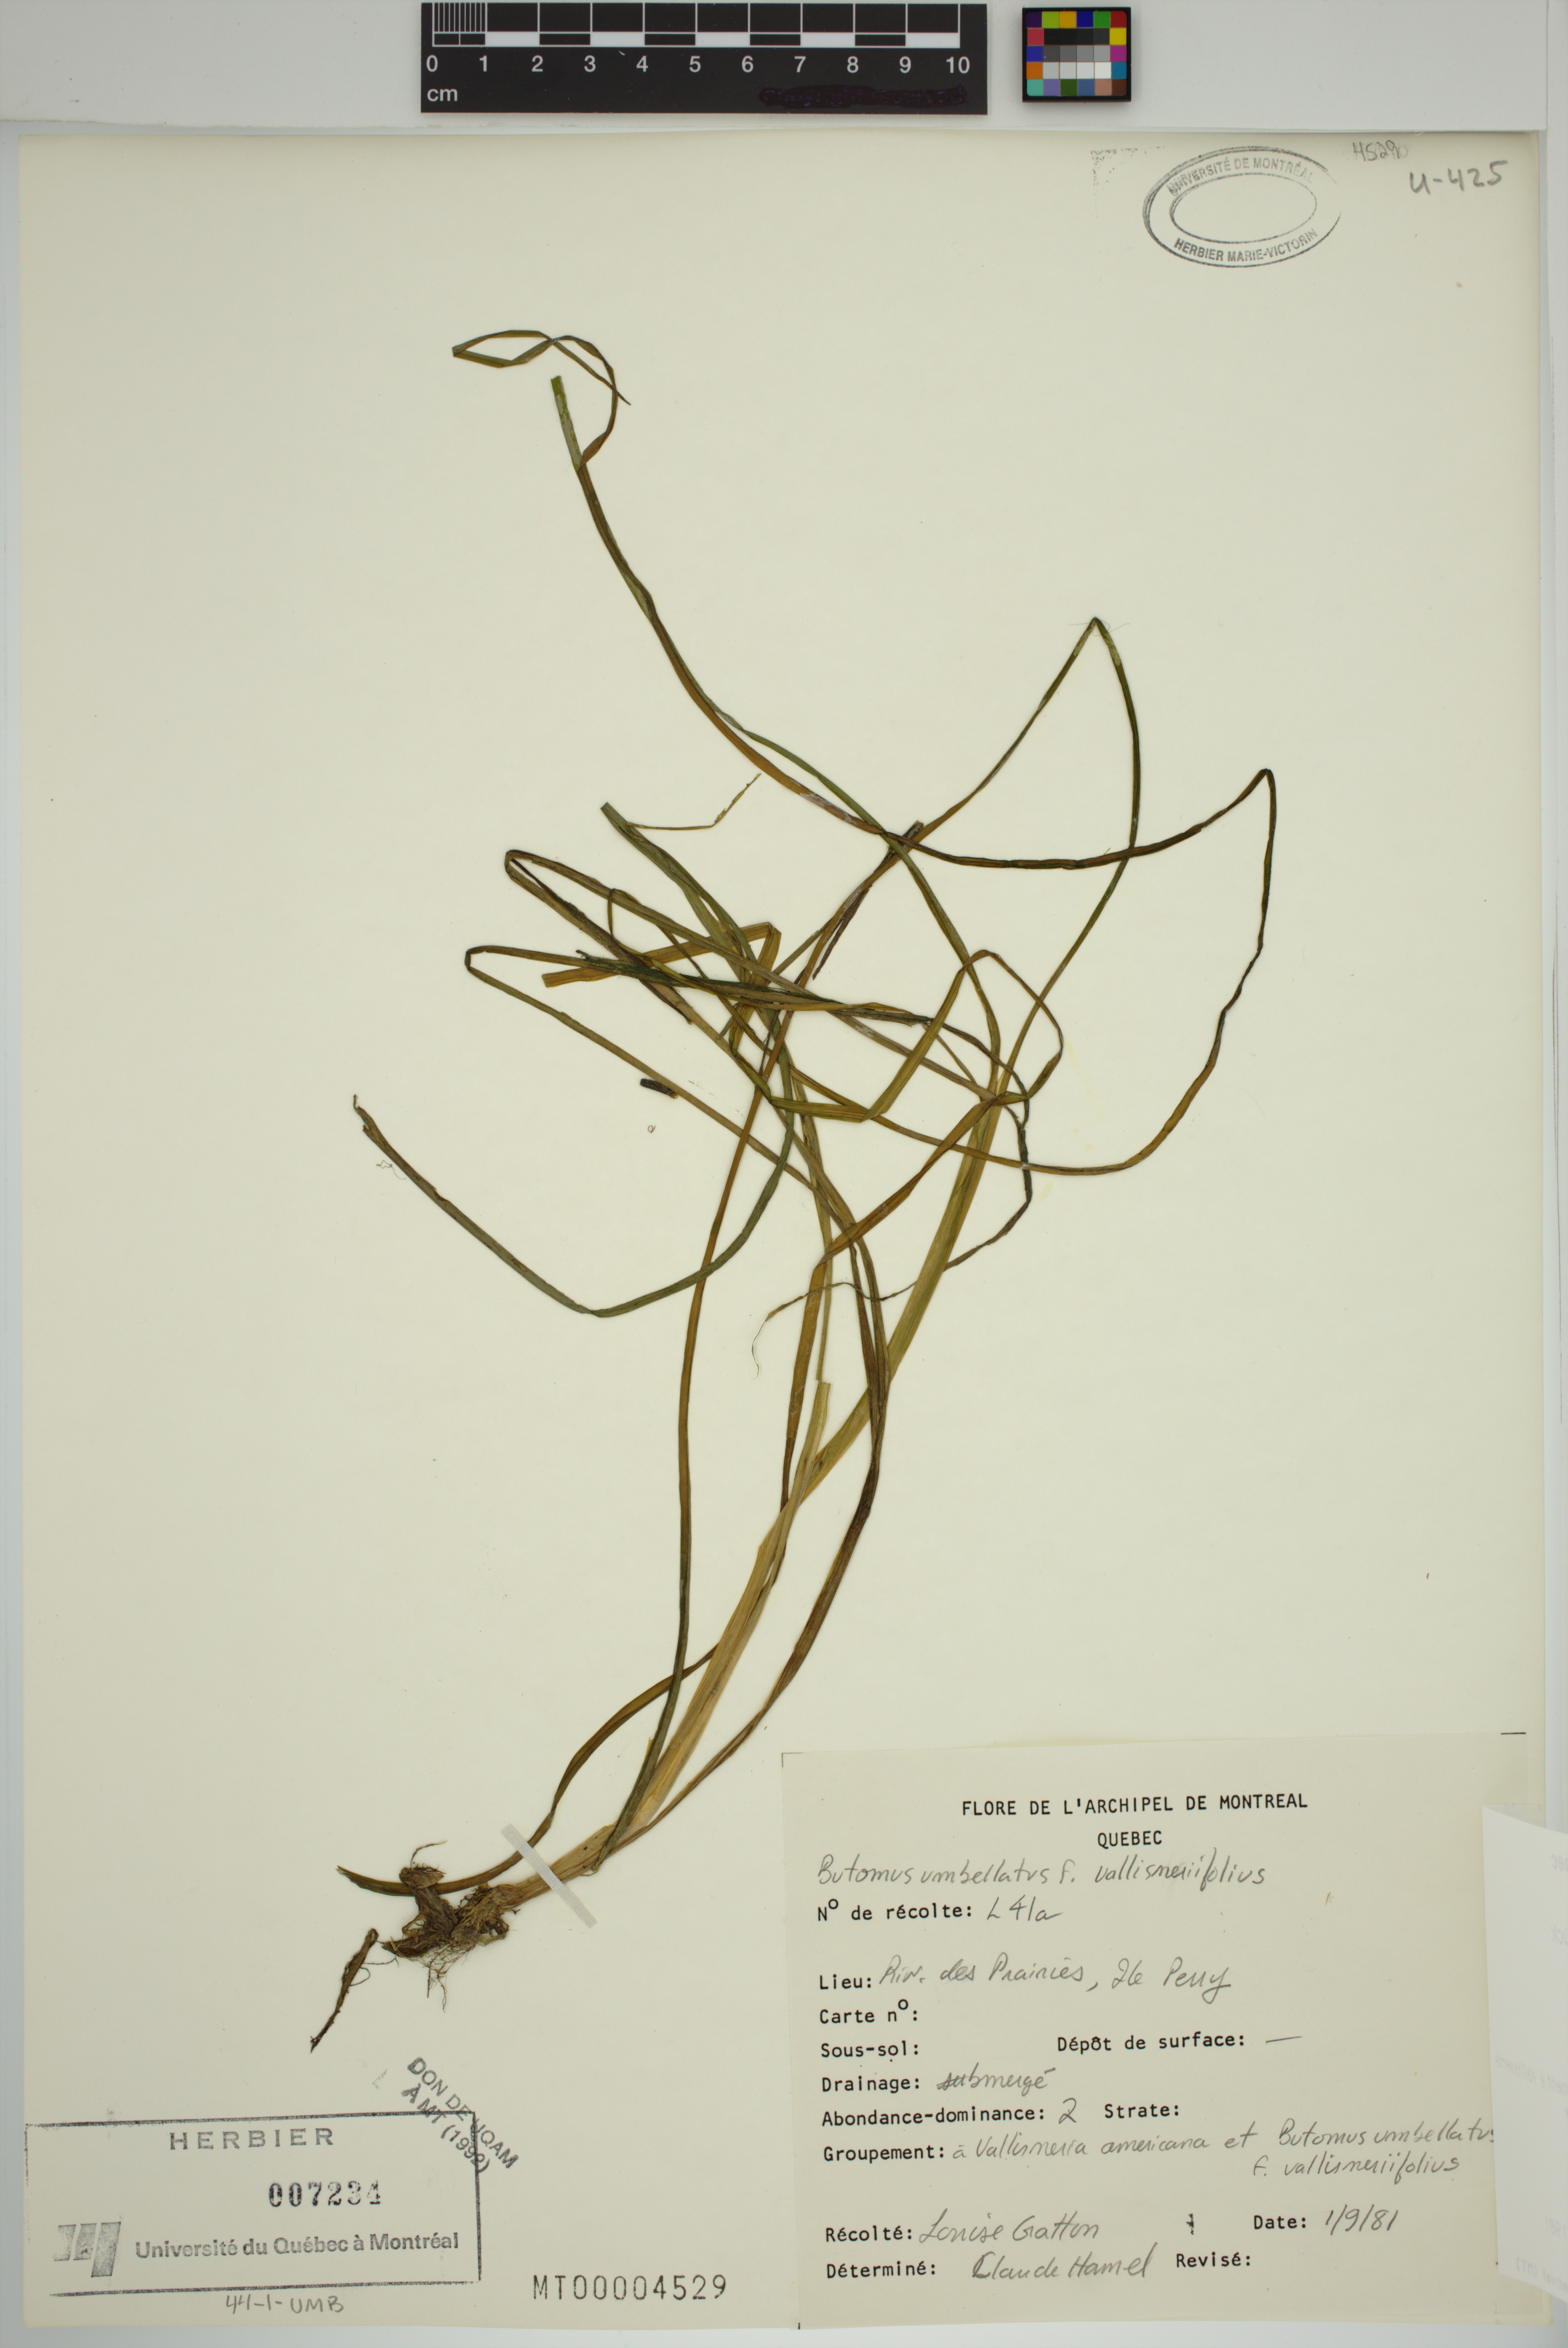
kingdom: Plantae
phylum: Tracheophyta
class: Liliopsida
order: Alismatales
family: Butomaceae
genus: Butomus
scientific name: Butomus umbellatus
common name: Flowering-rush
